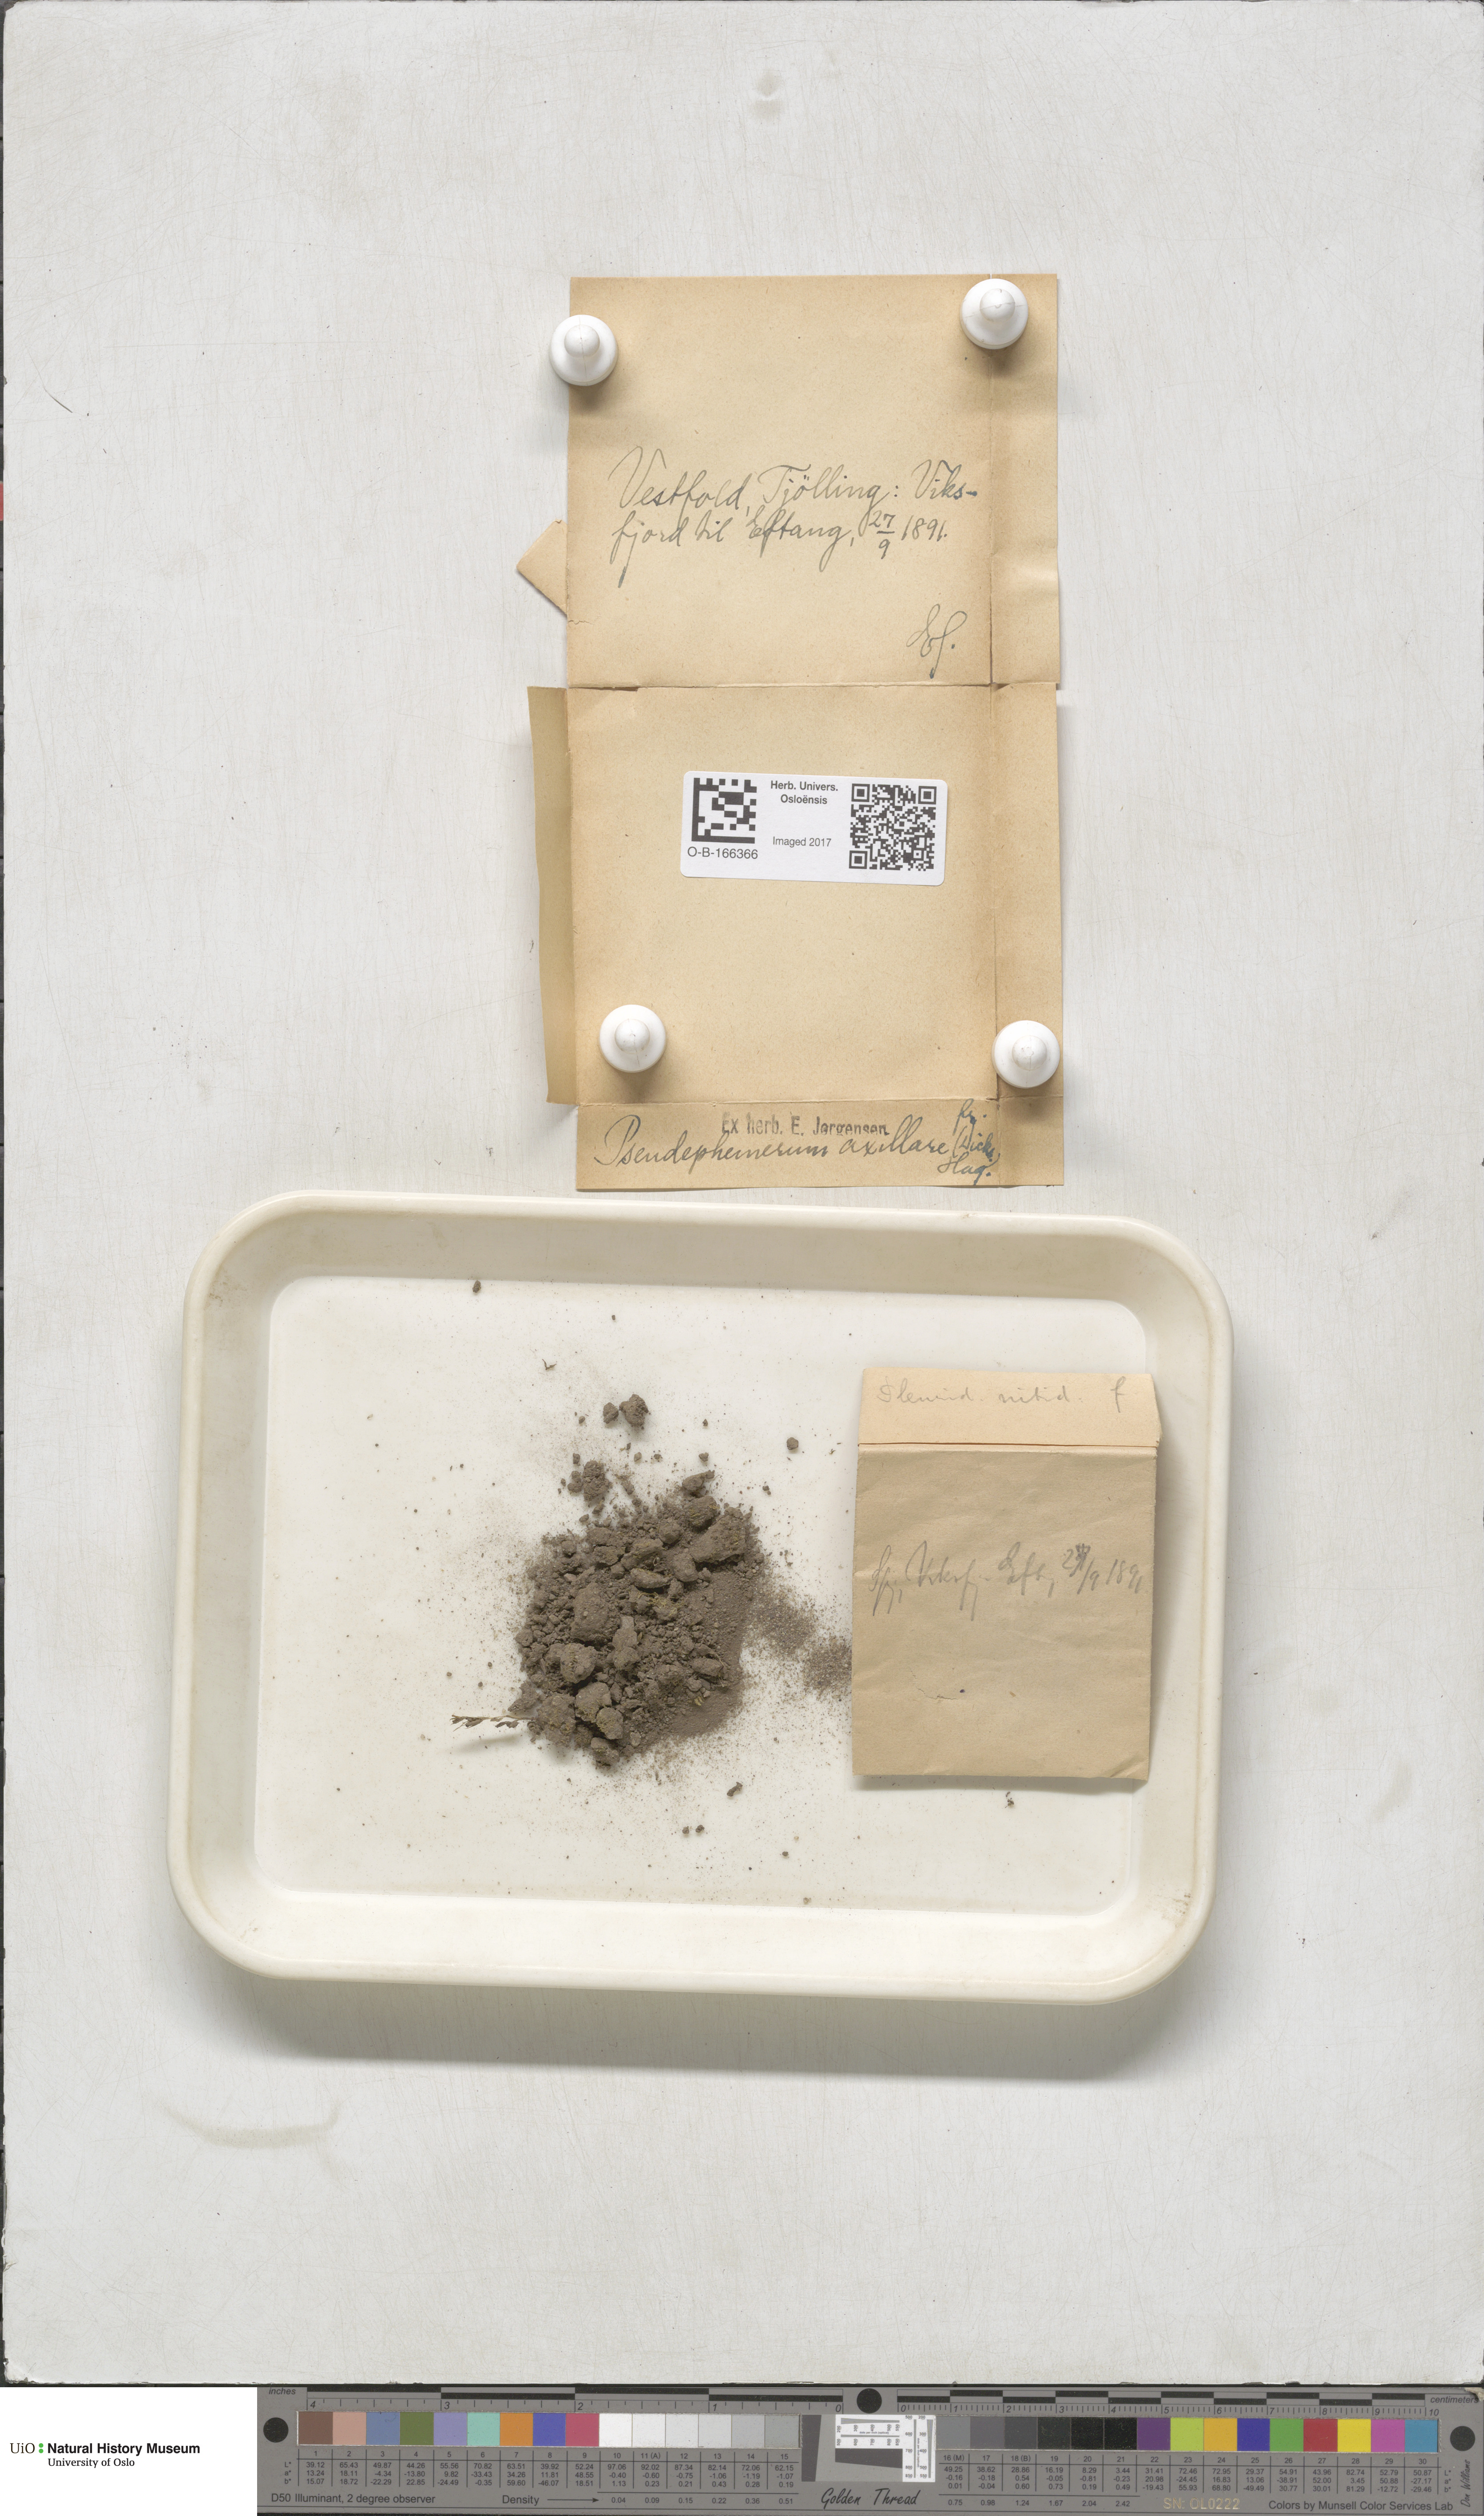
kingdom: Plantae
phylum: Bryophyta
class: Bryopsida
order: Dicranales
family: Ditrichaceae
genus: Pseudephemerum
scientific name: Pseudephemerum nitidum
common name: Delicate earth-moss
